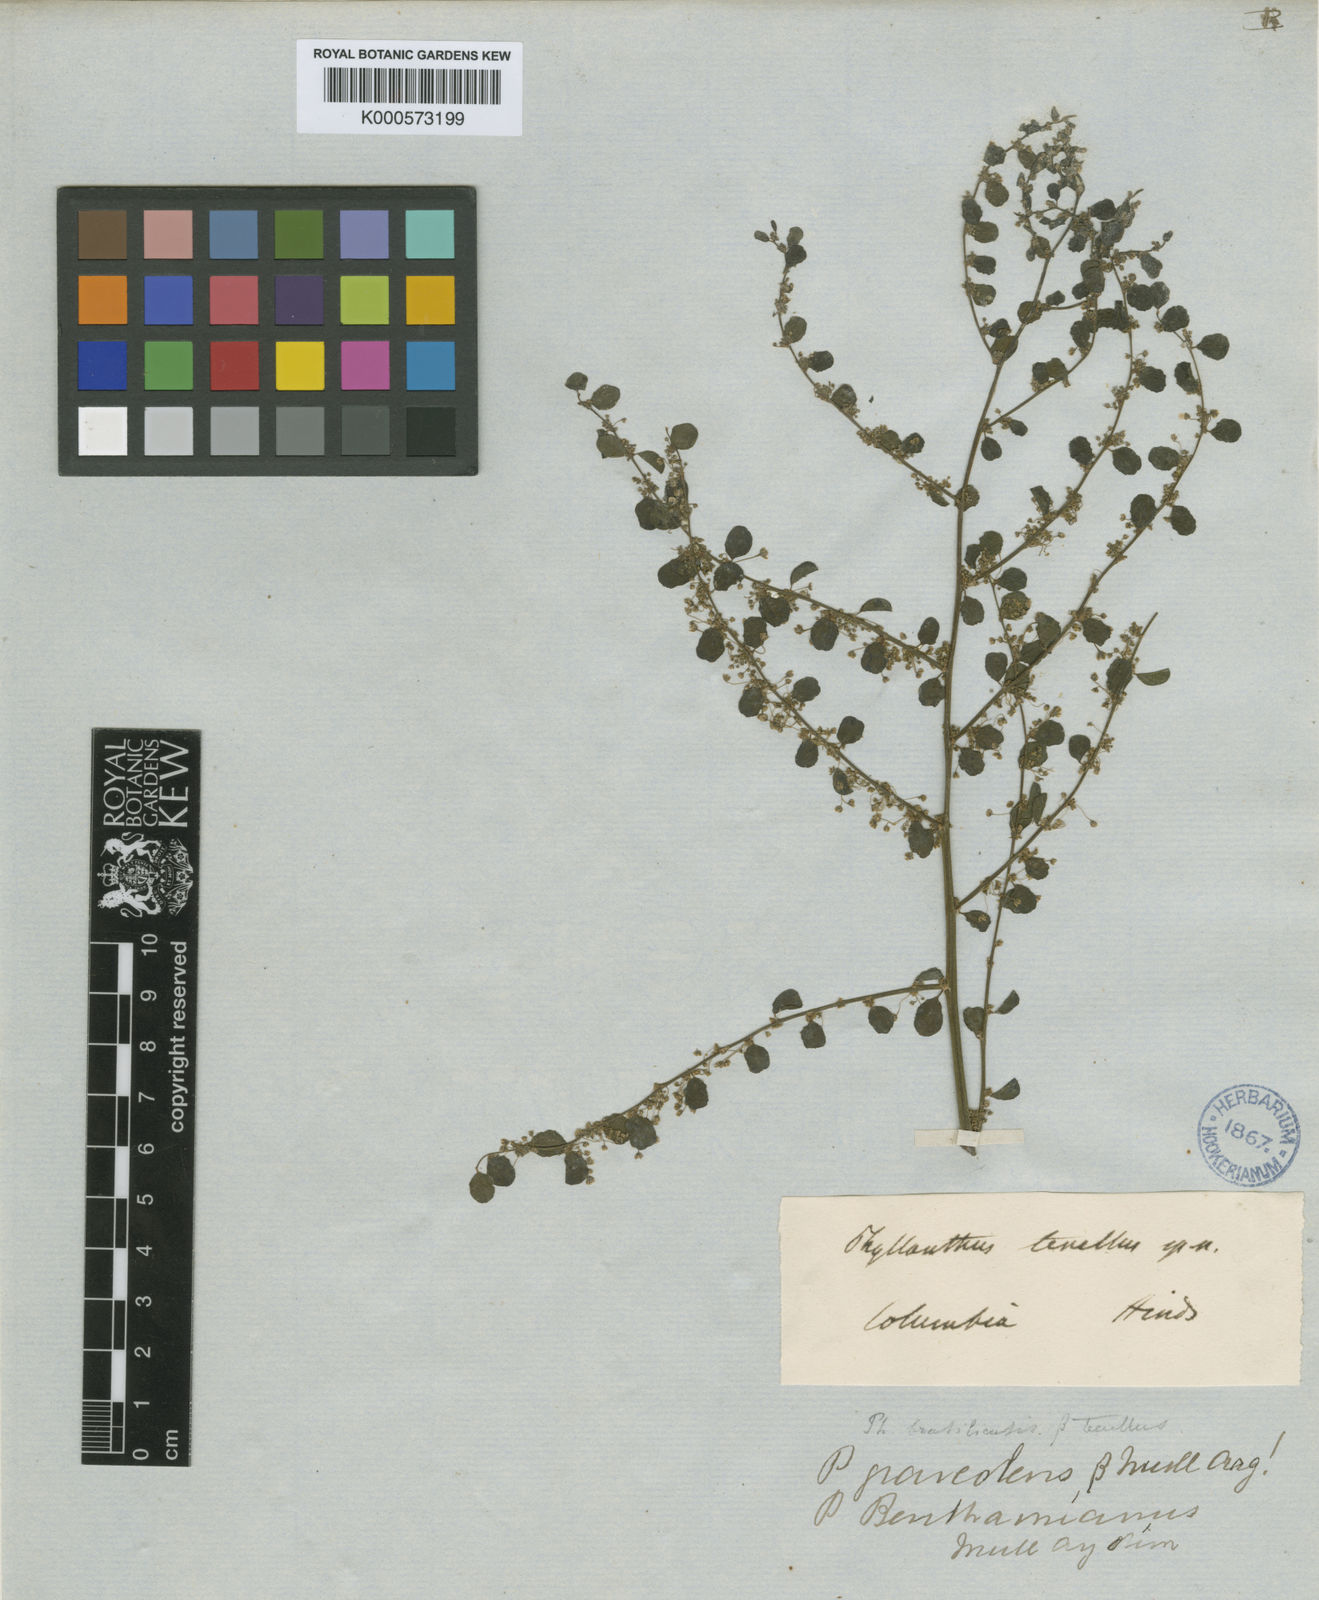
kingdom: Plantae
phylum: Tracheophyta
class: Magnoliopsida
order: Malpighiales
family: Phyllanthaceae
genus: Phyllanthus
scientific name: Phyllanthus graveolens
